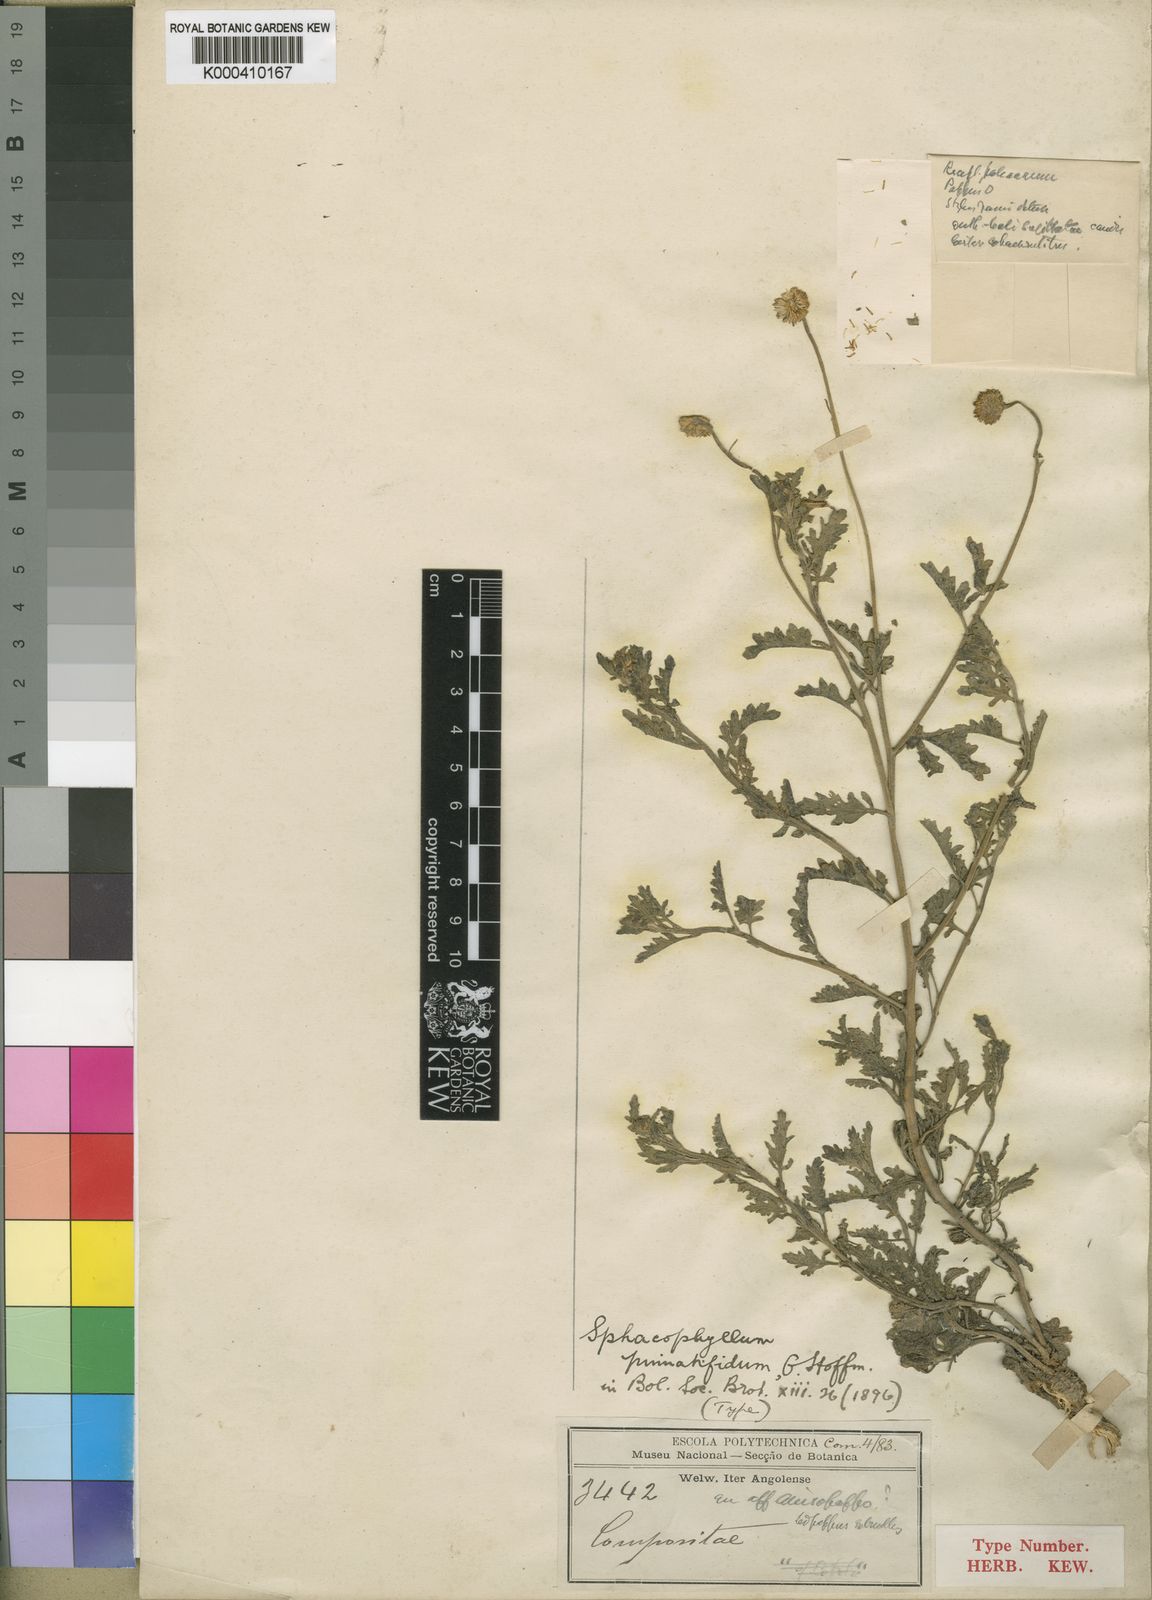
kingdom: Plantae
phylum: Tracheophyta
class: Magnoliopsida
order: Asterales
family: Asteraceae
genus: Anisopappus
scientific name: Anisopappus grangeoides
